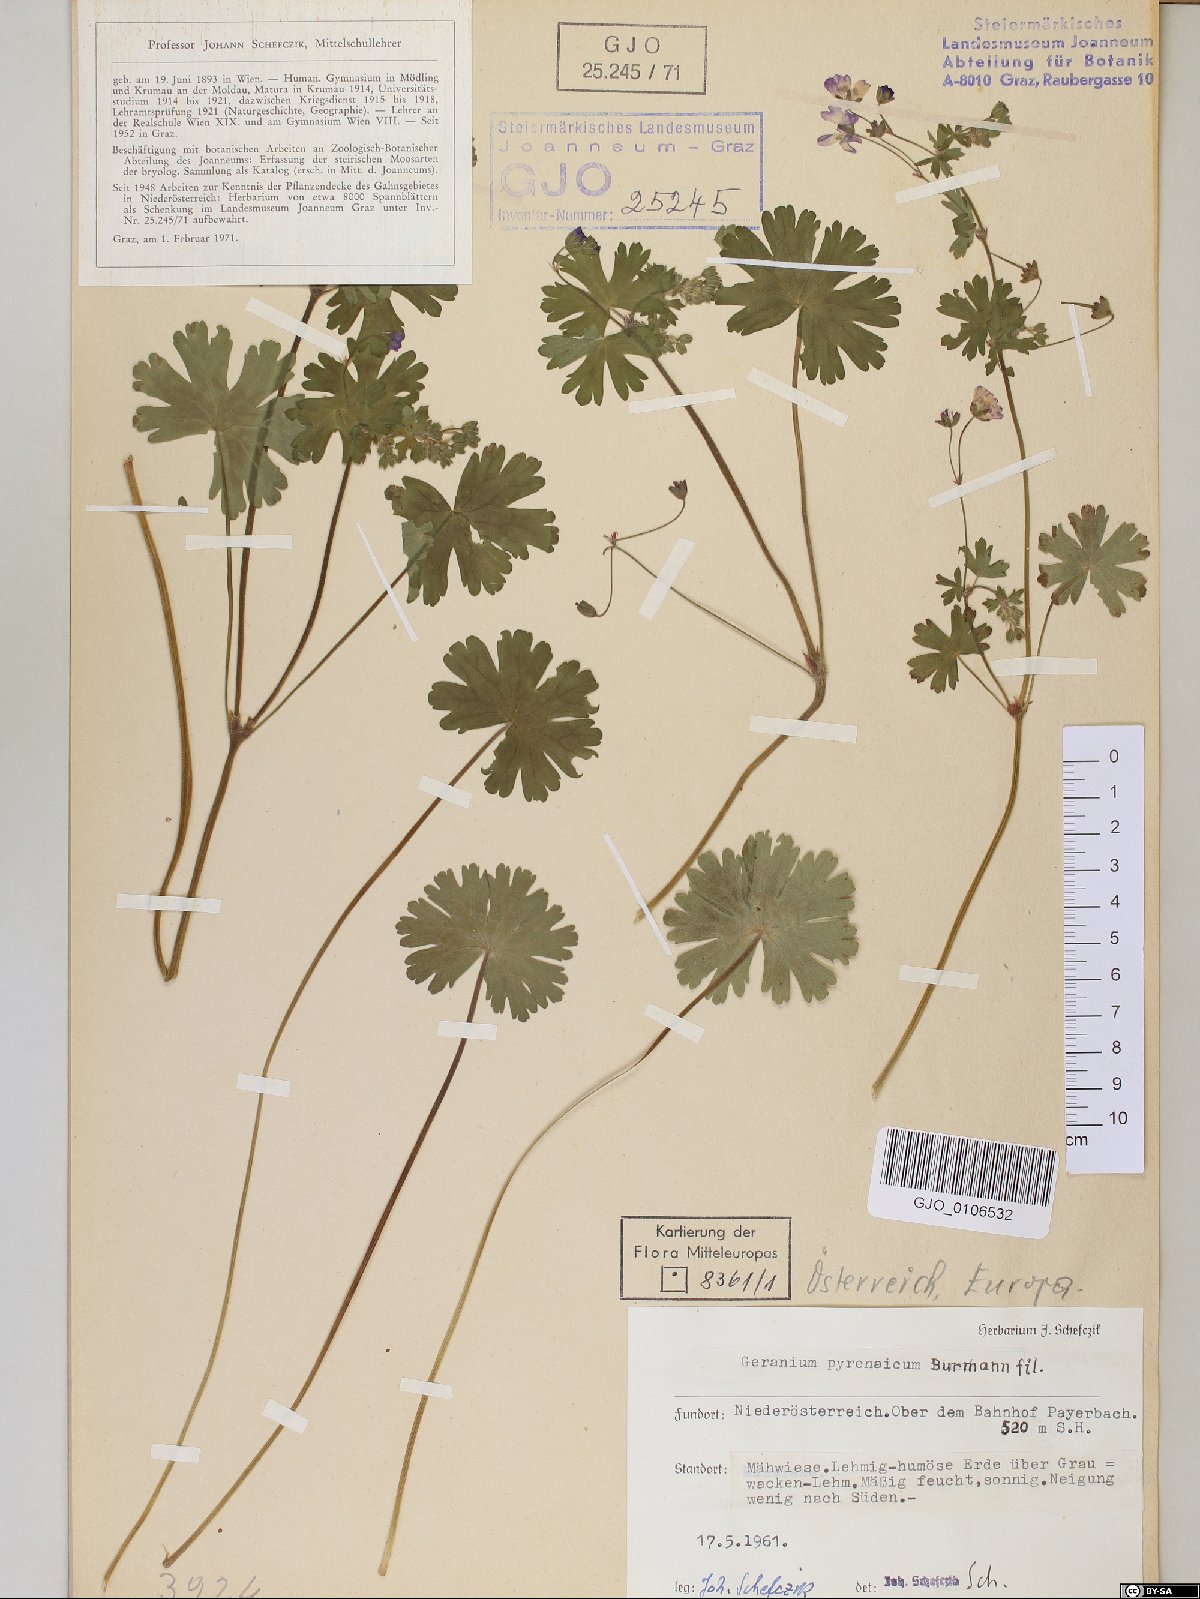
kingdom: Plantae
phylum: Tracheophyta
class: Magnoliopsida
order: Geraniales
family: Geraniaceae
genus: Geranium
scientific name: Geranium pyrenaicum
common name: Hedgerow crane's-bill
